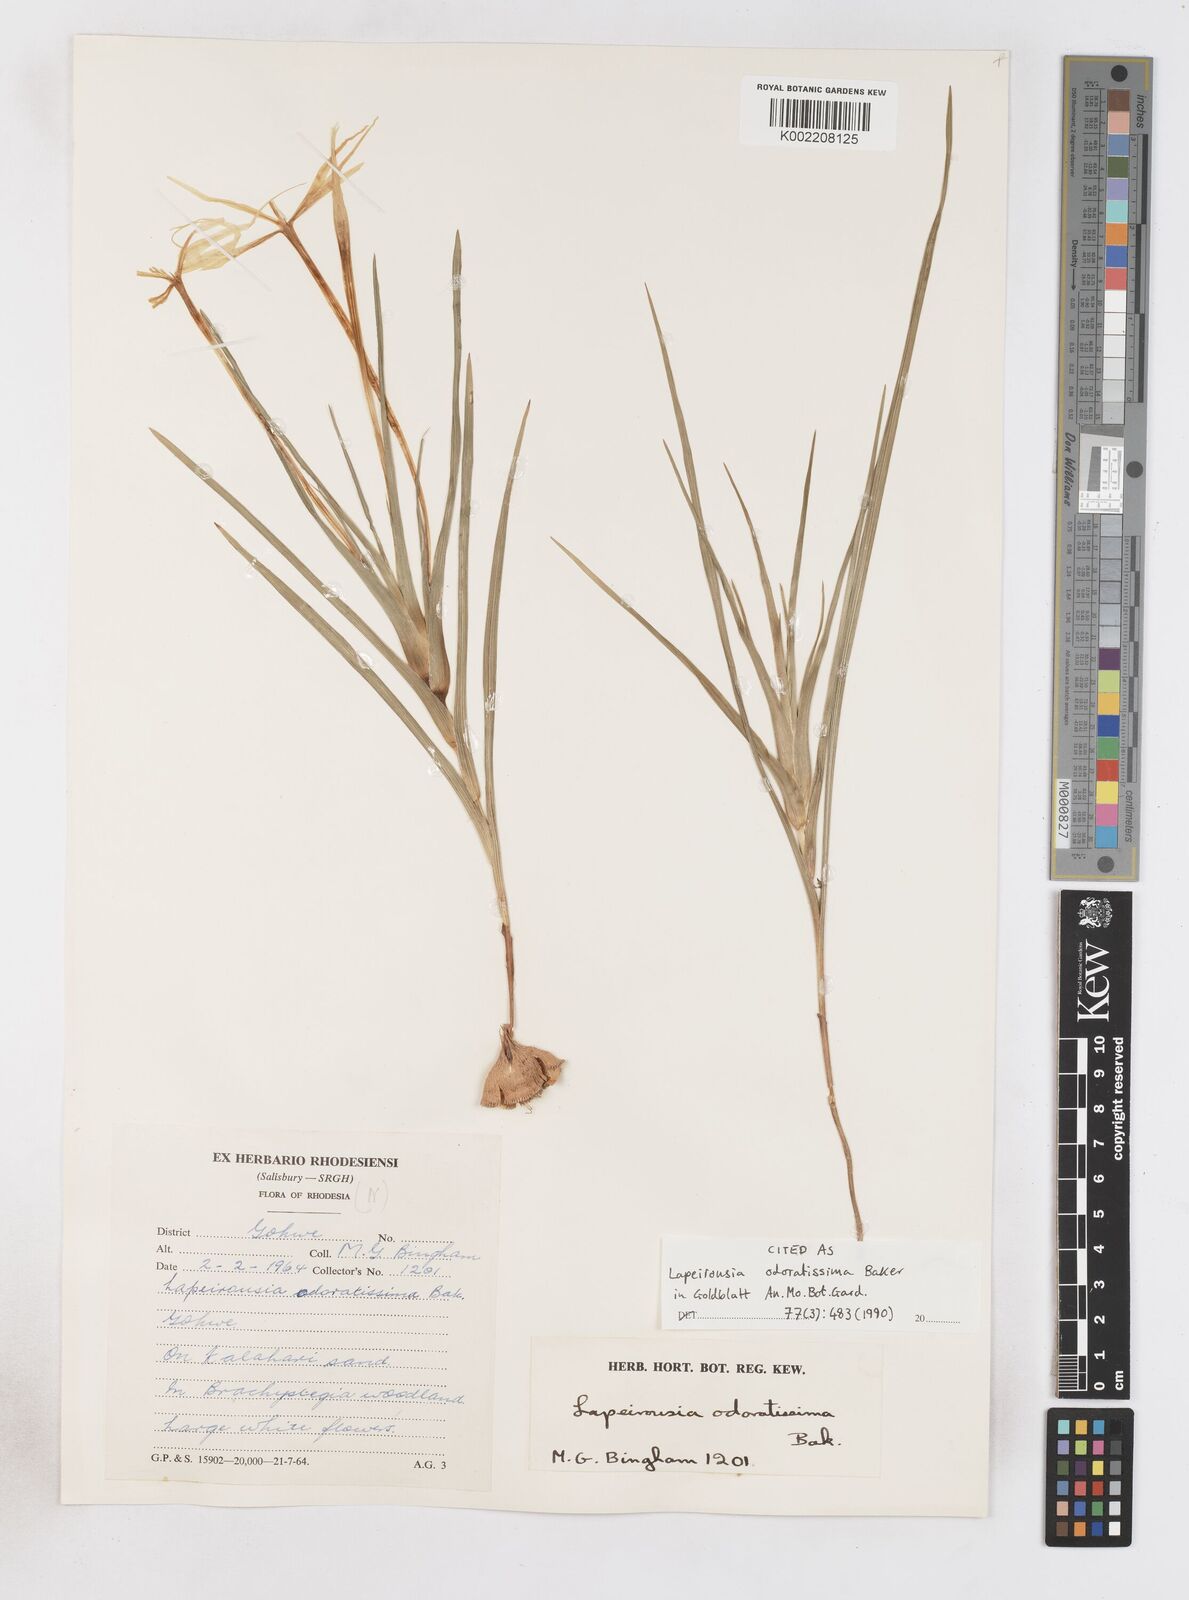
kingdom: Plantae
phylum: Tracheophyta
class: Liliopsida
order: Asparagales
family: Iridaceae
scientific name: Iridaceae
